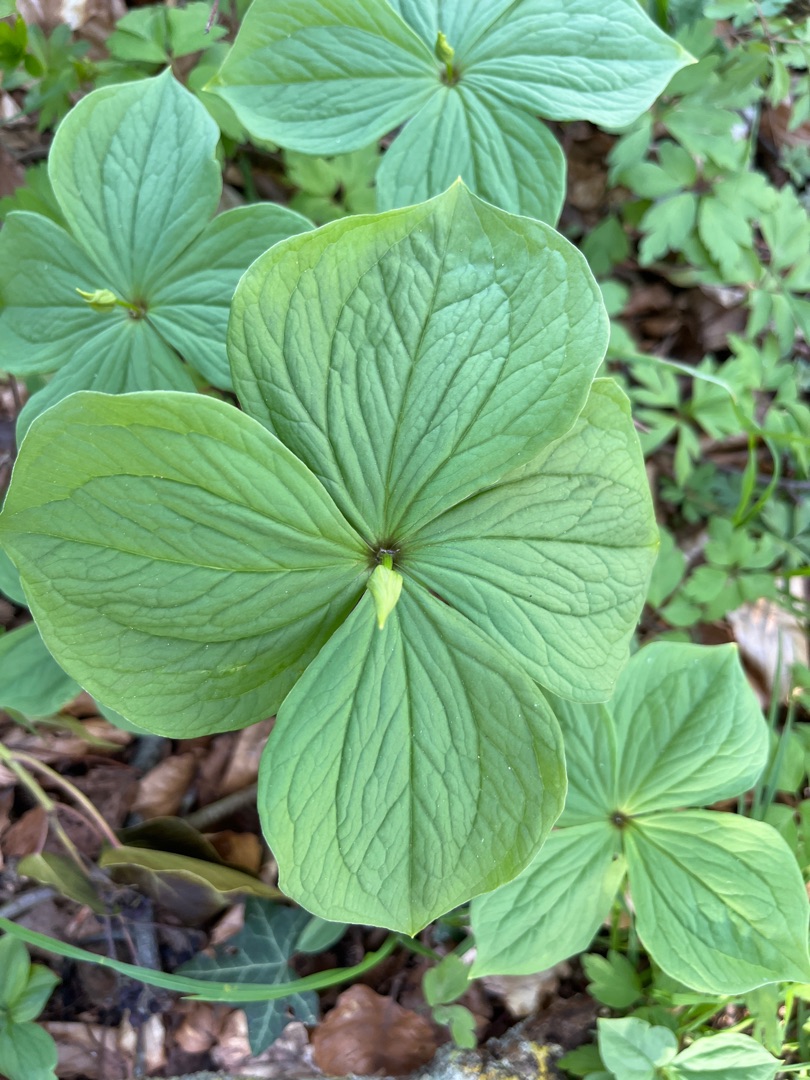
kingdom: Plantae
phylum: Tracheophyta
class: Liliopsida
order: Liliales
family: Melanthiaceae
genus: Paris
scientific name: Paris quadrifolia
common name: Firblad
